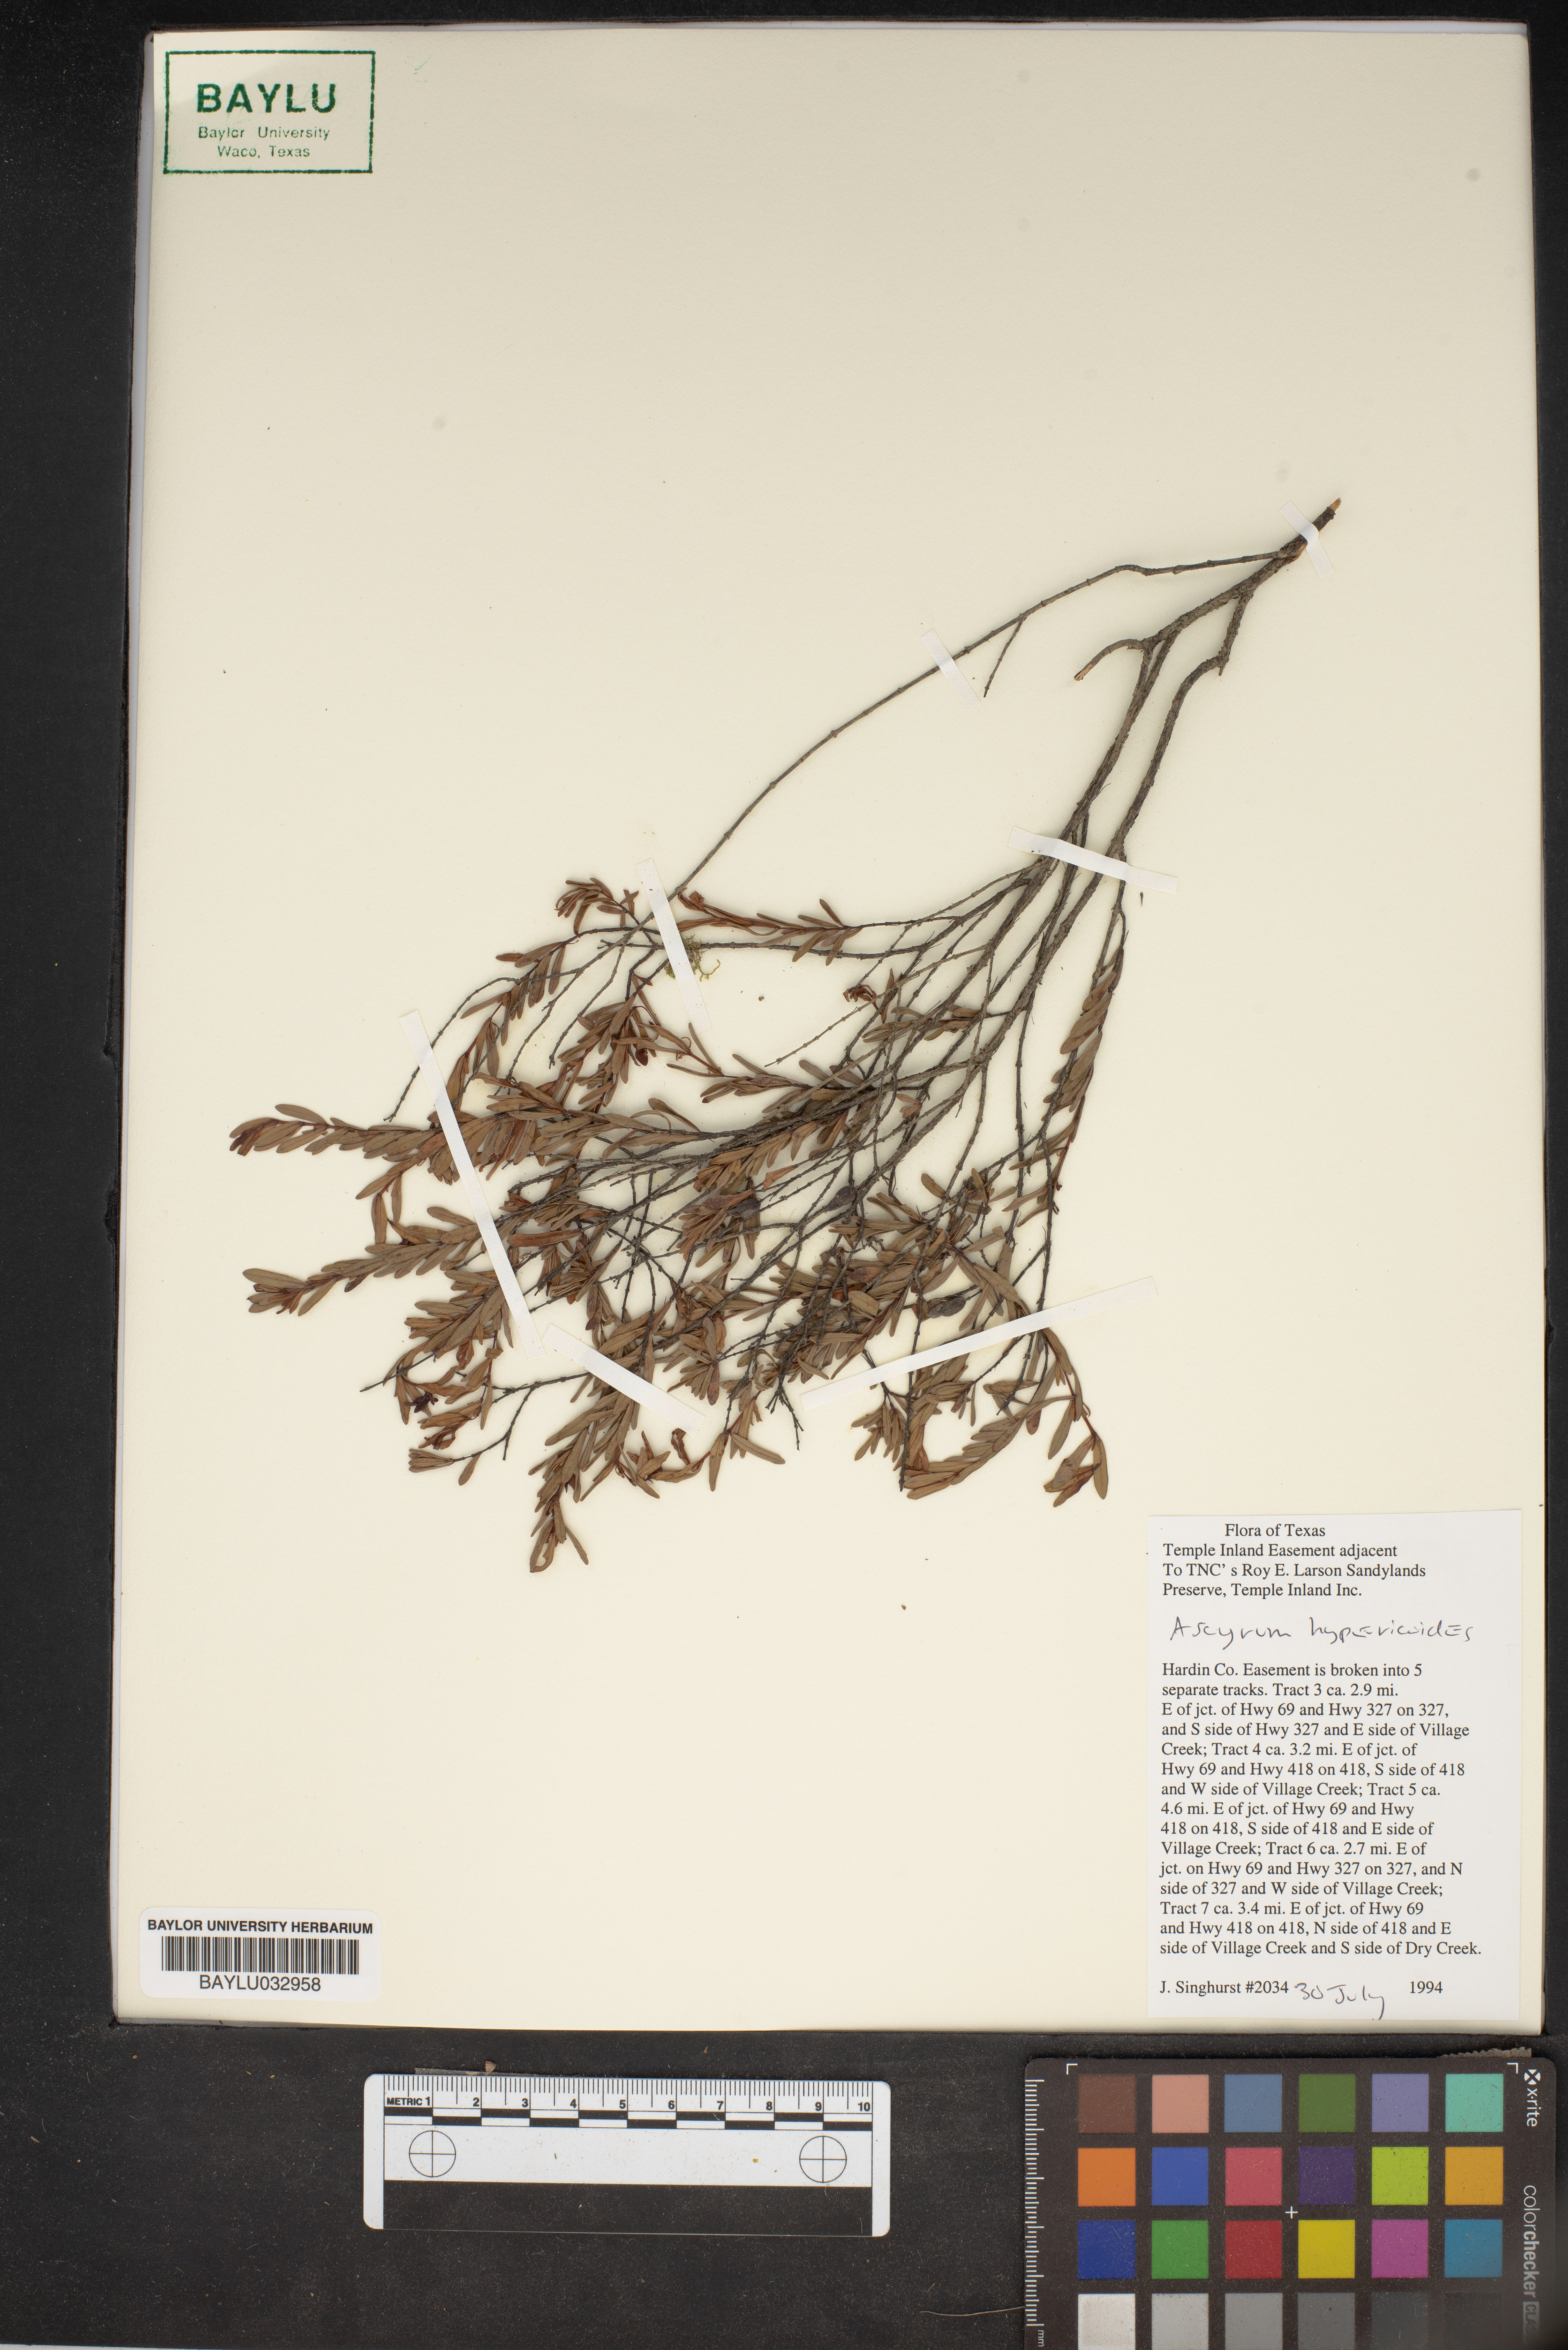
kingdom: Plantae
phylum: Tracheophyta
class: Magnoliopsida
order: Malpighiales
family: Hypericaceae
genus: Hypericum
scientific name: Hypericum hypericoides
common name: St. andrew's cross
